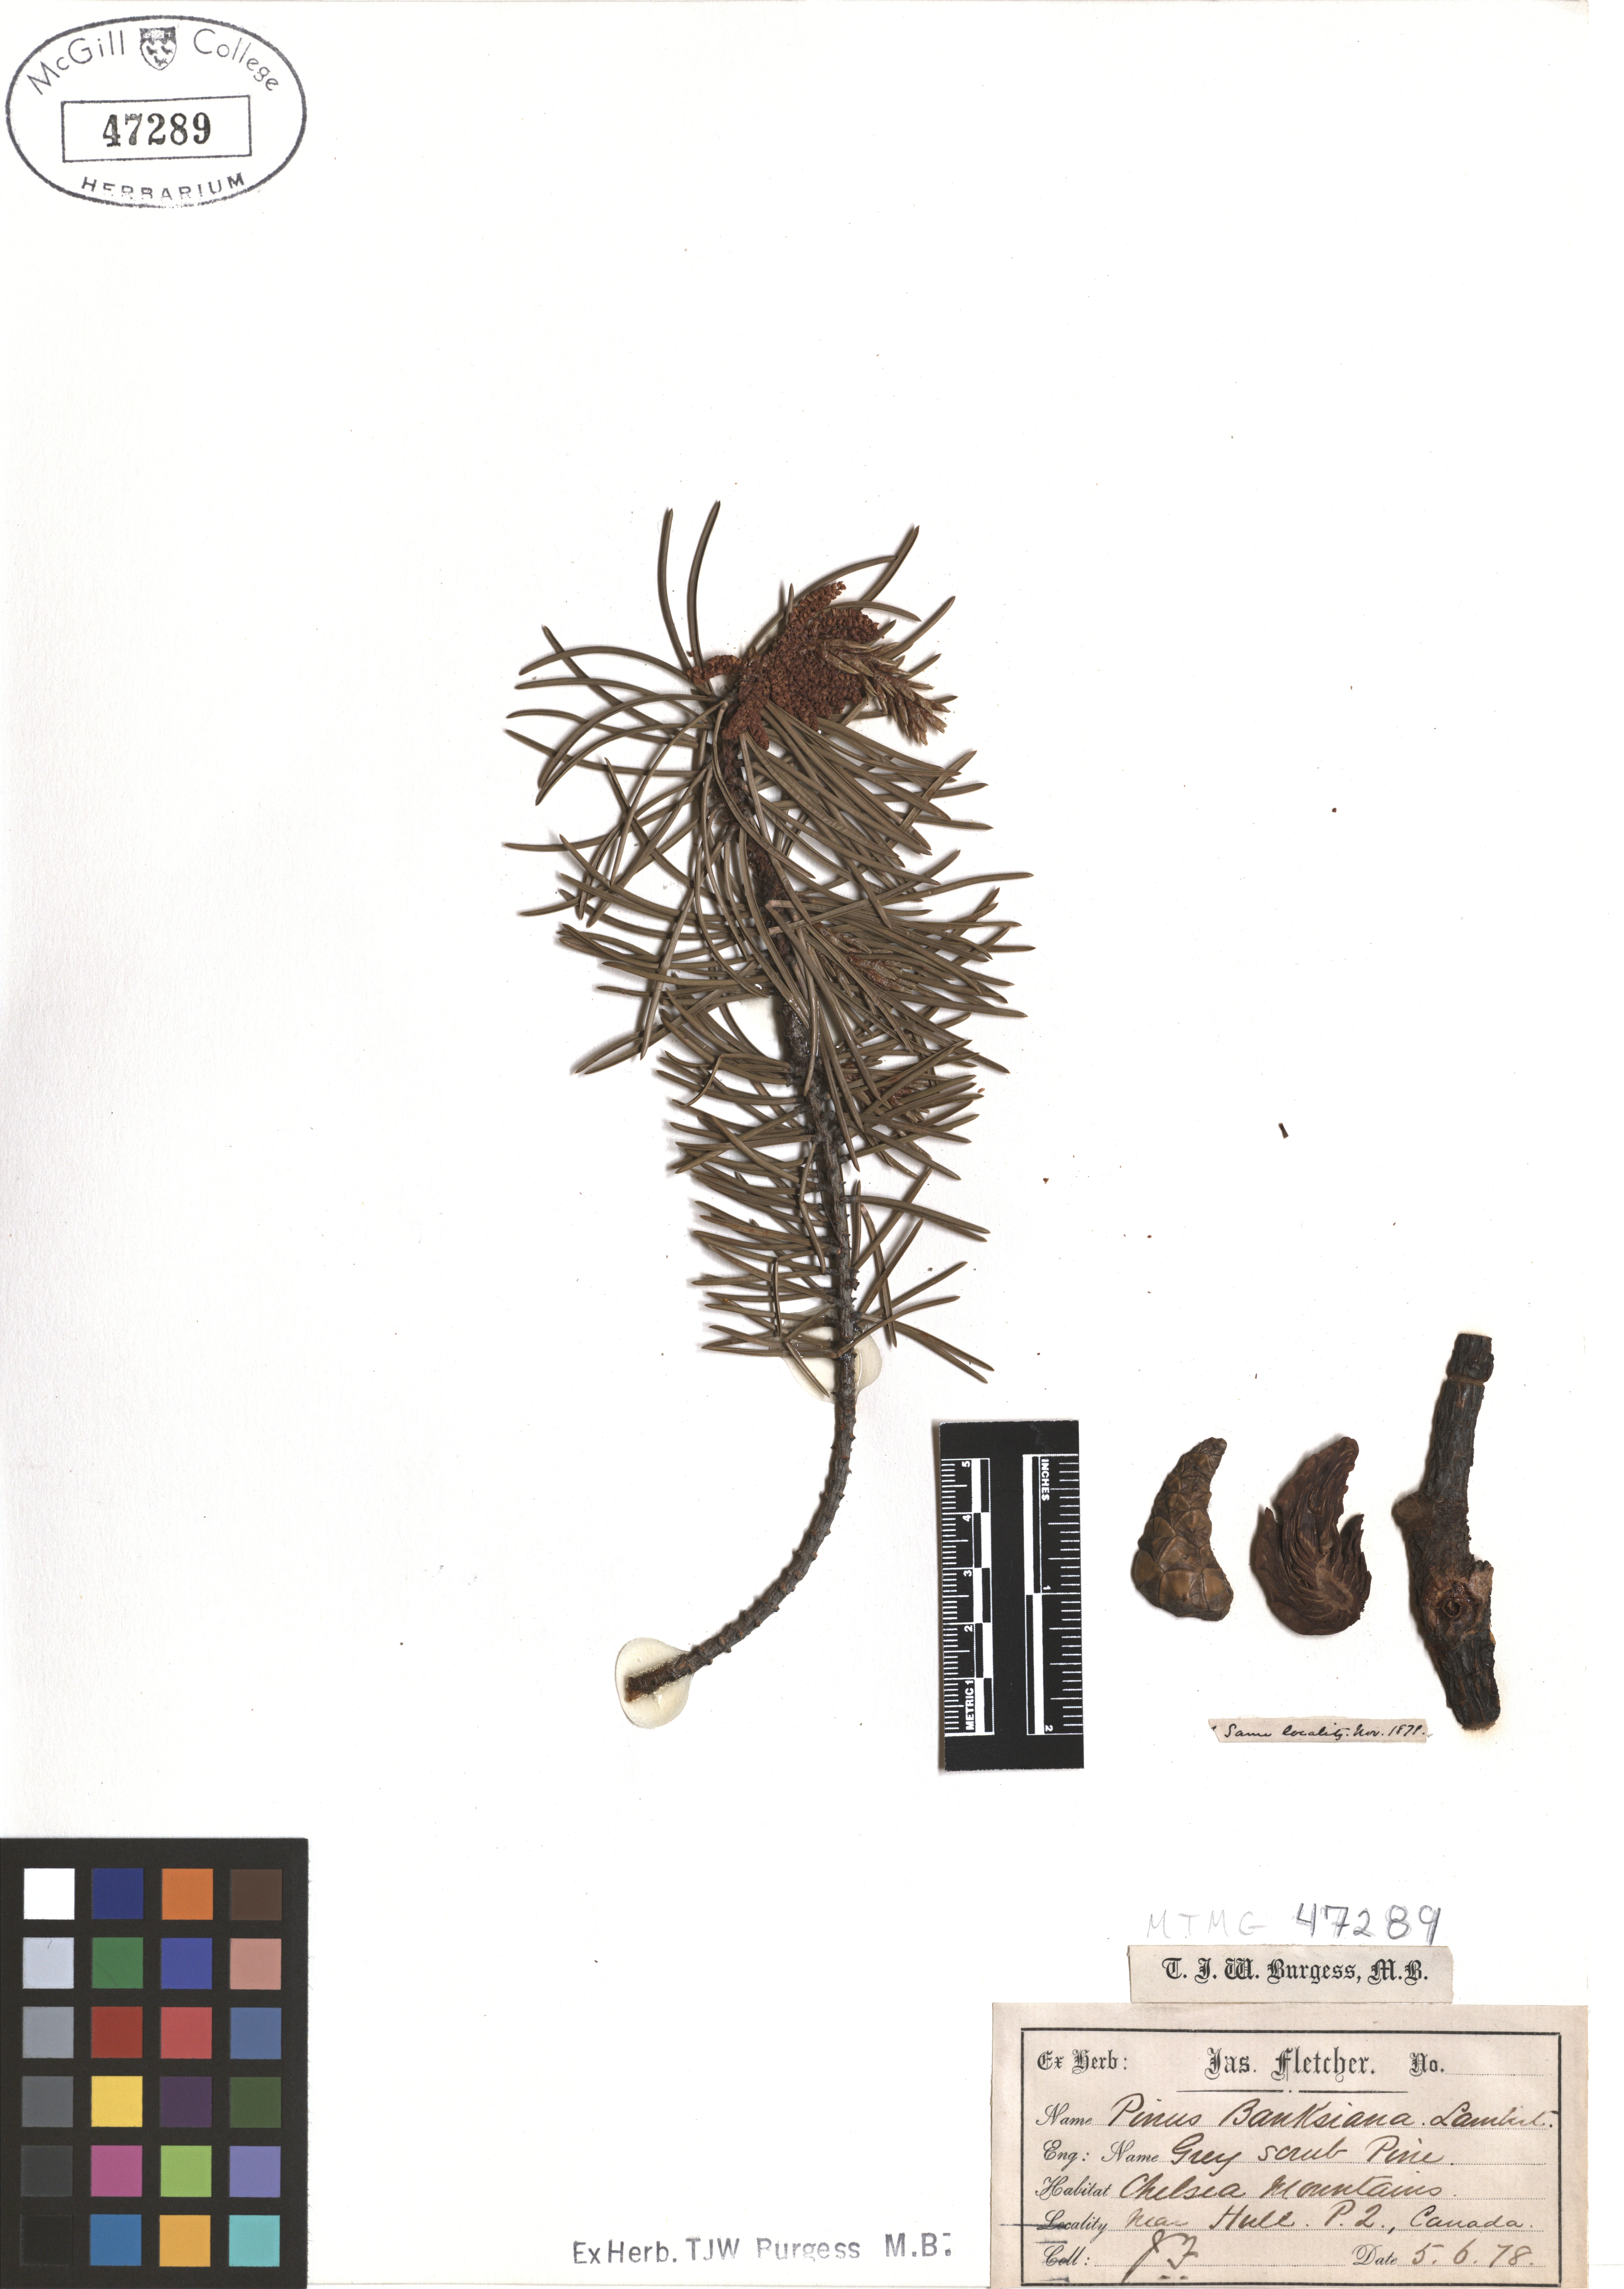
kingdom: Plantae
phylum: Tracheophyta
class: Pinopsida
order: Pinales
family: Pinaceae
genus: Pinus
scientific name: Pinus banksiana
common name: Jack pine
